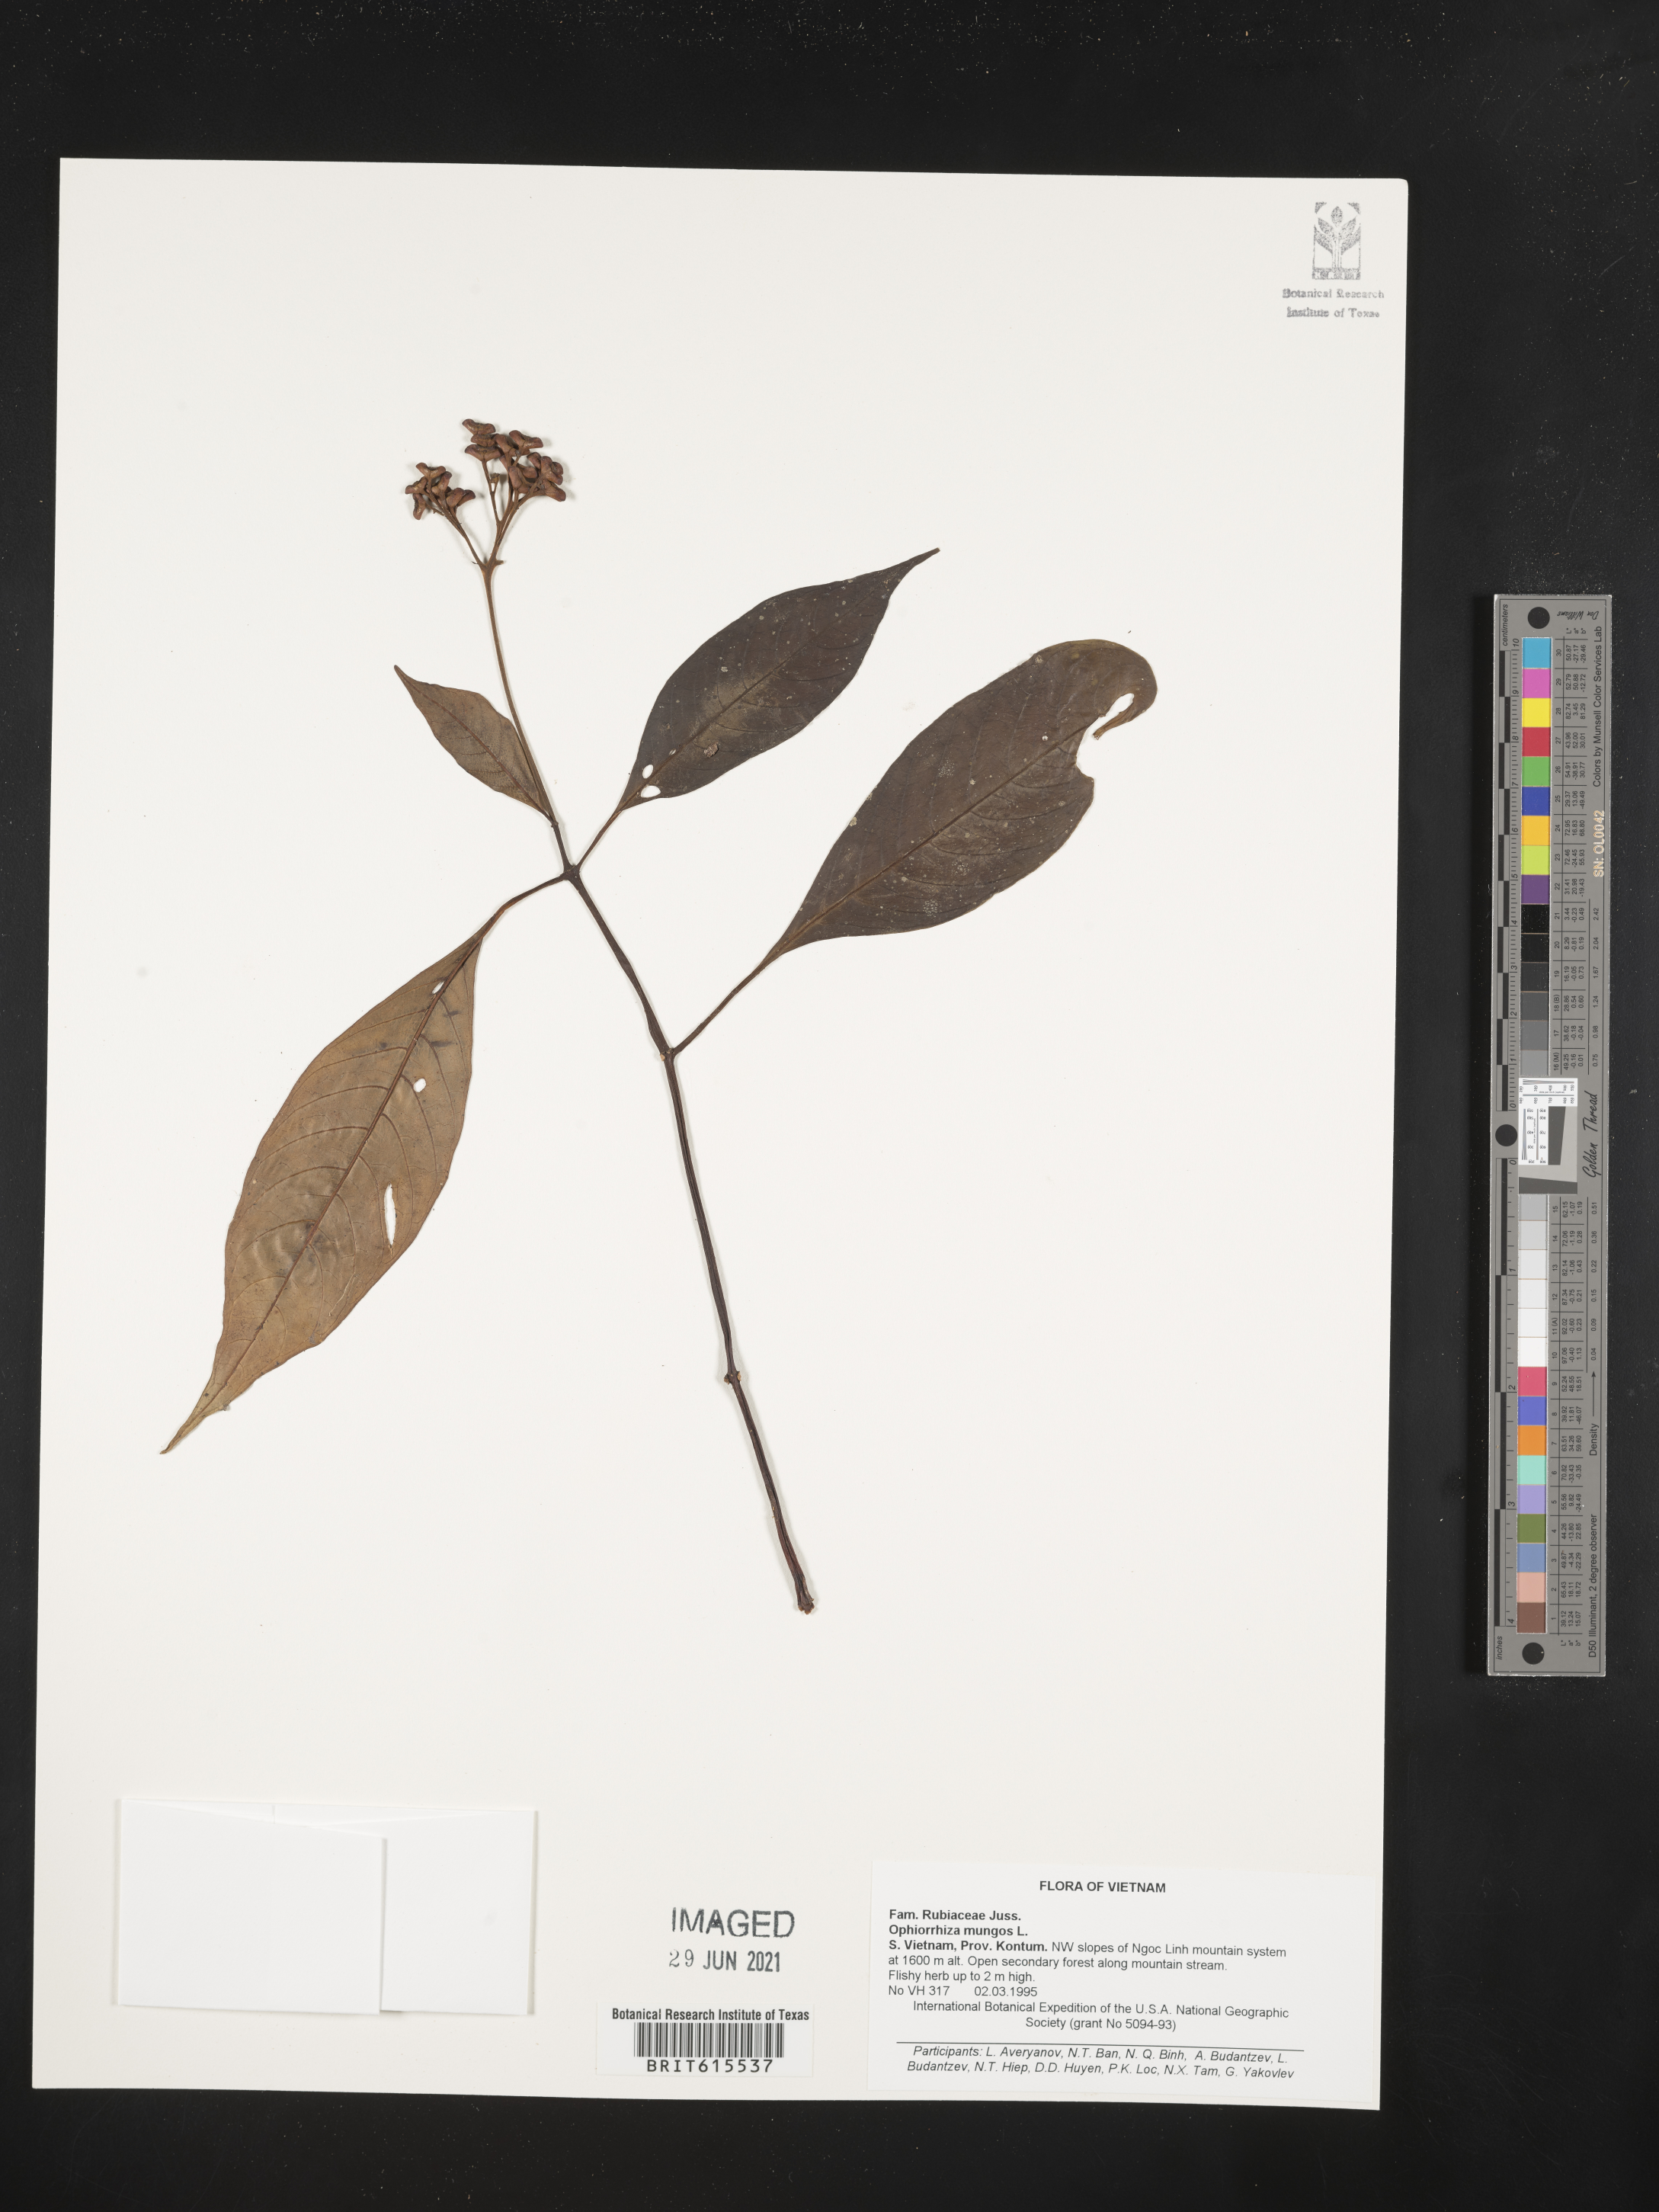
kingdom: Plantae
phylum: Tracheophyta
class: Magnoliopsida
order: Gentianales
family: Rubiaceae
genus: Ophiorrhiza
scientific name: Ophiorrhiza mungos
